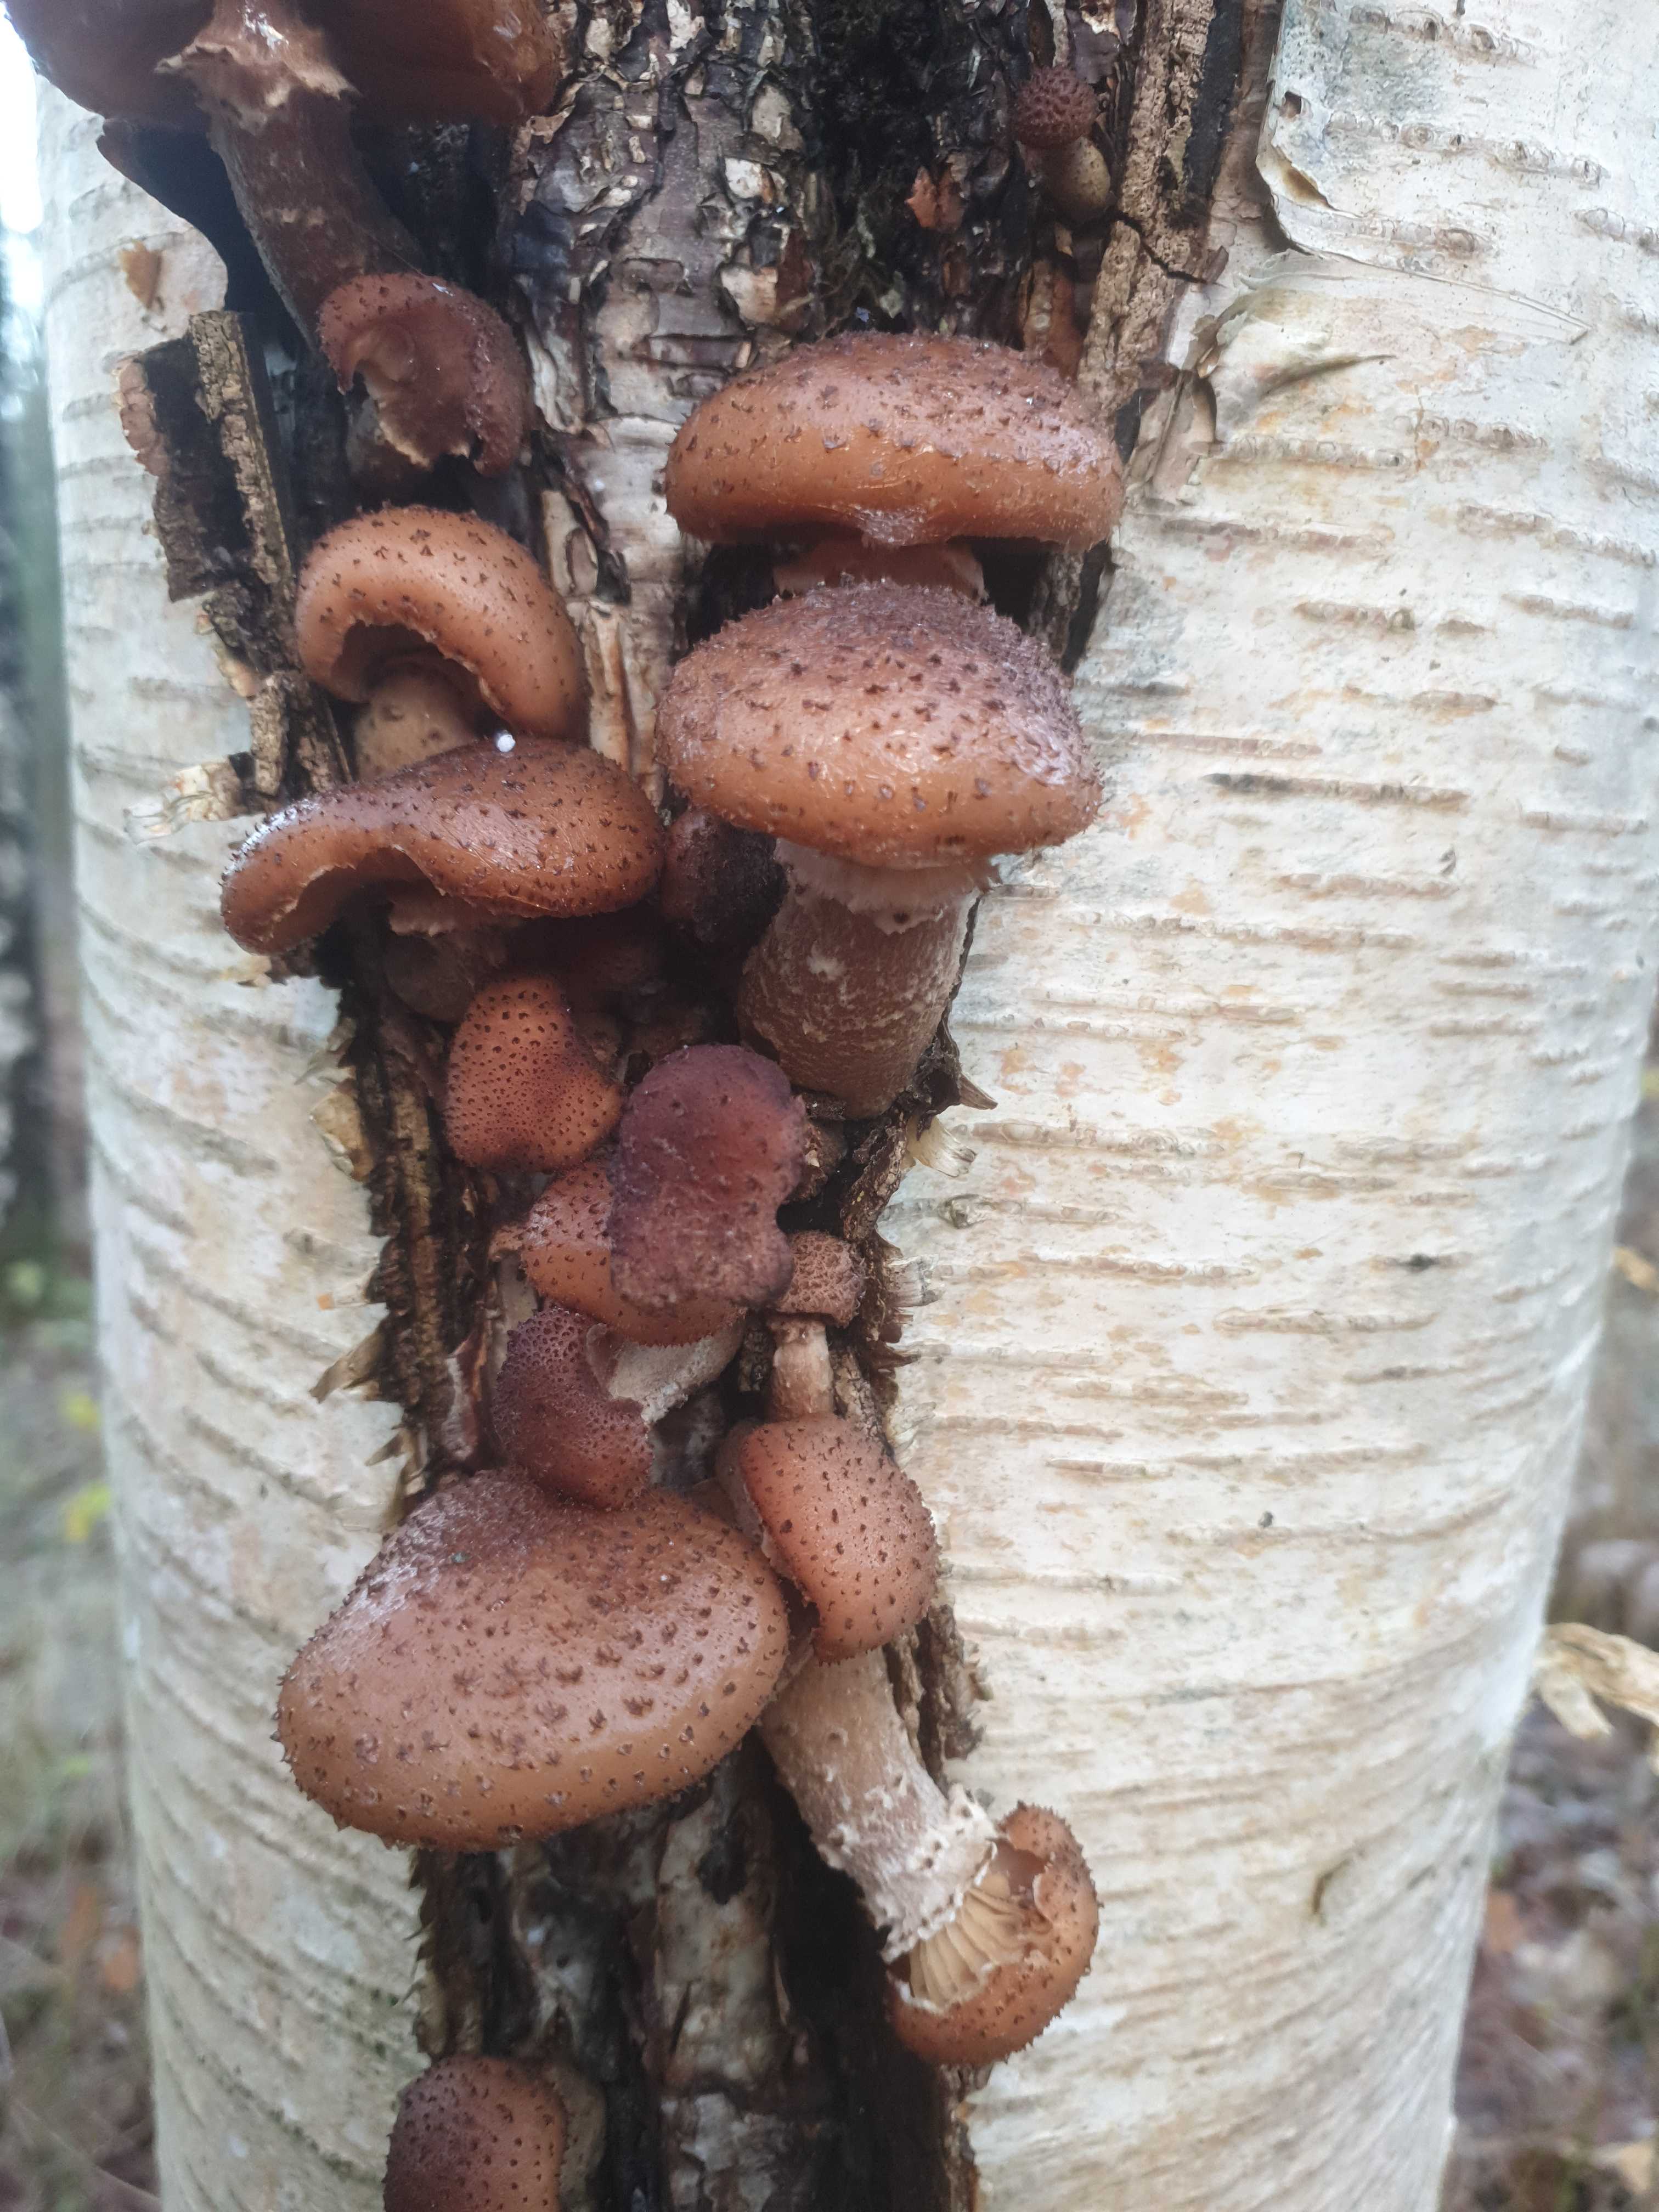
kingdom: Fungi
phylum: Basidiomycota
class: Agaricomycetes
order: Agaricales
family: Physalacriaceae
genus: Armillaria
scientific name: Armillaria ostoyae
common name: mørk honningsvamp
